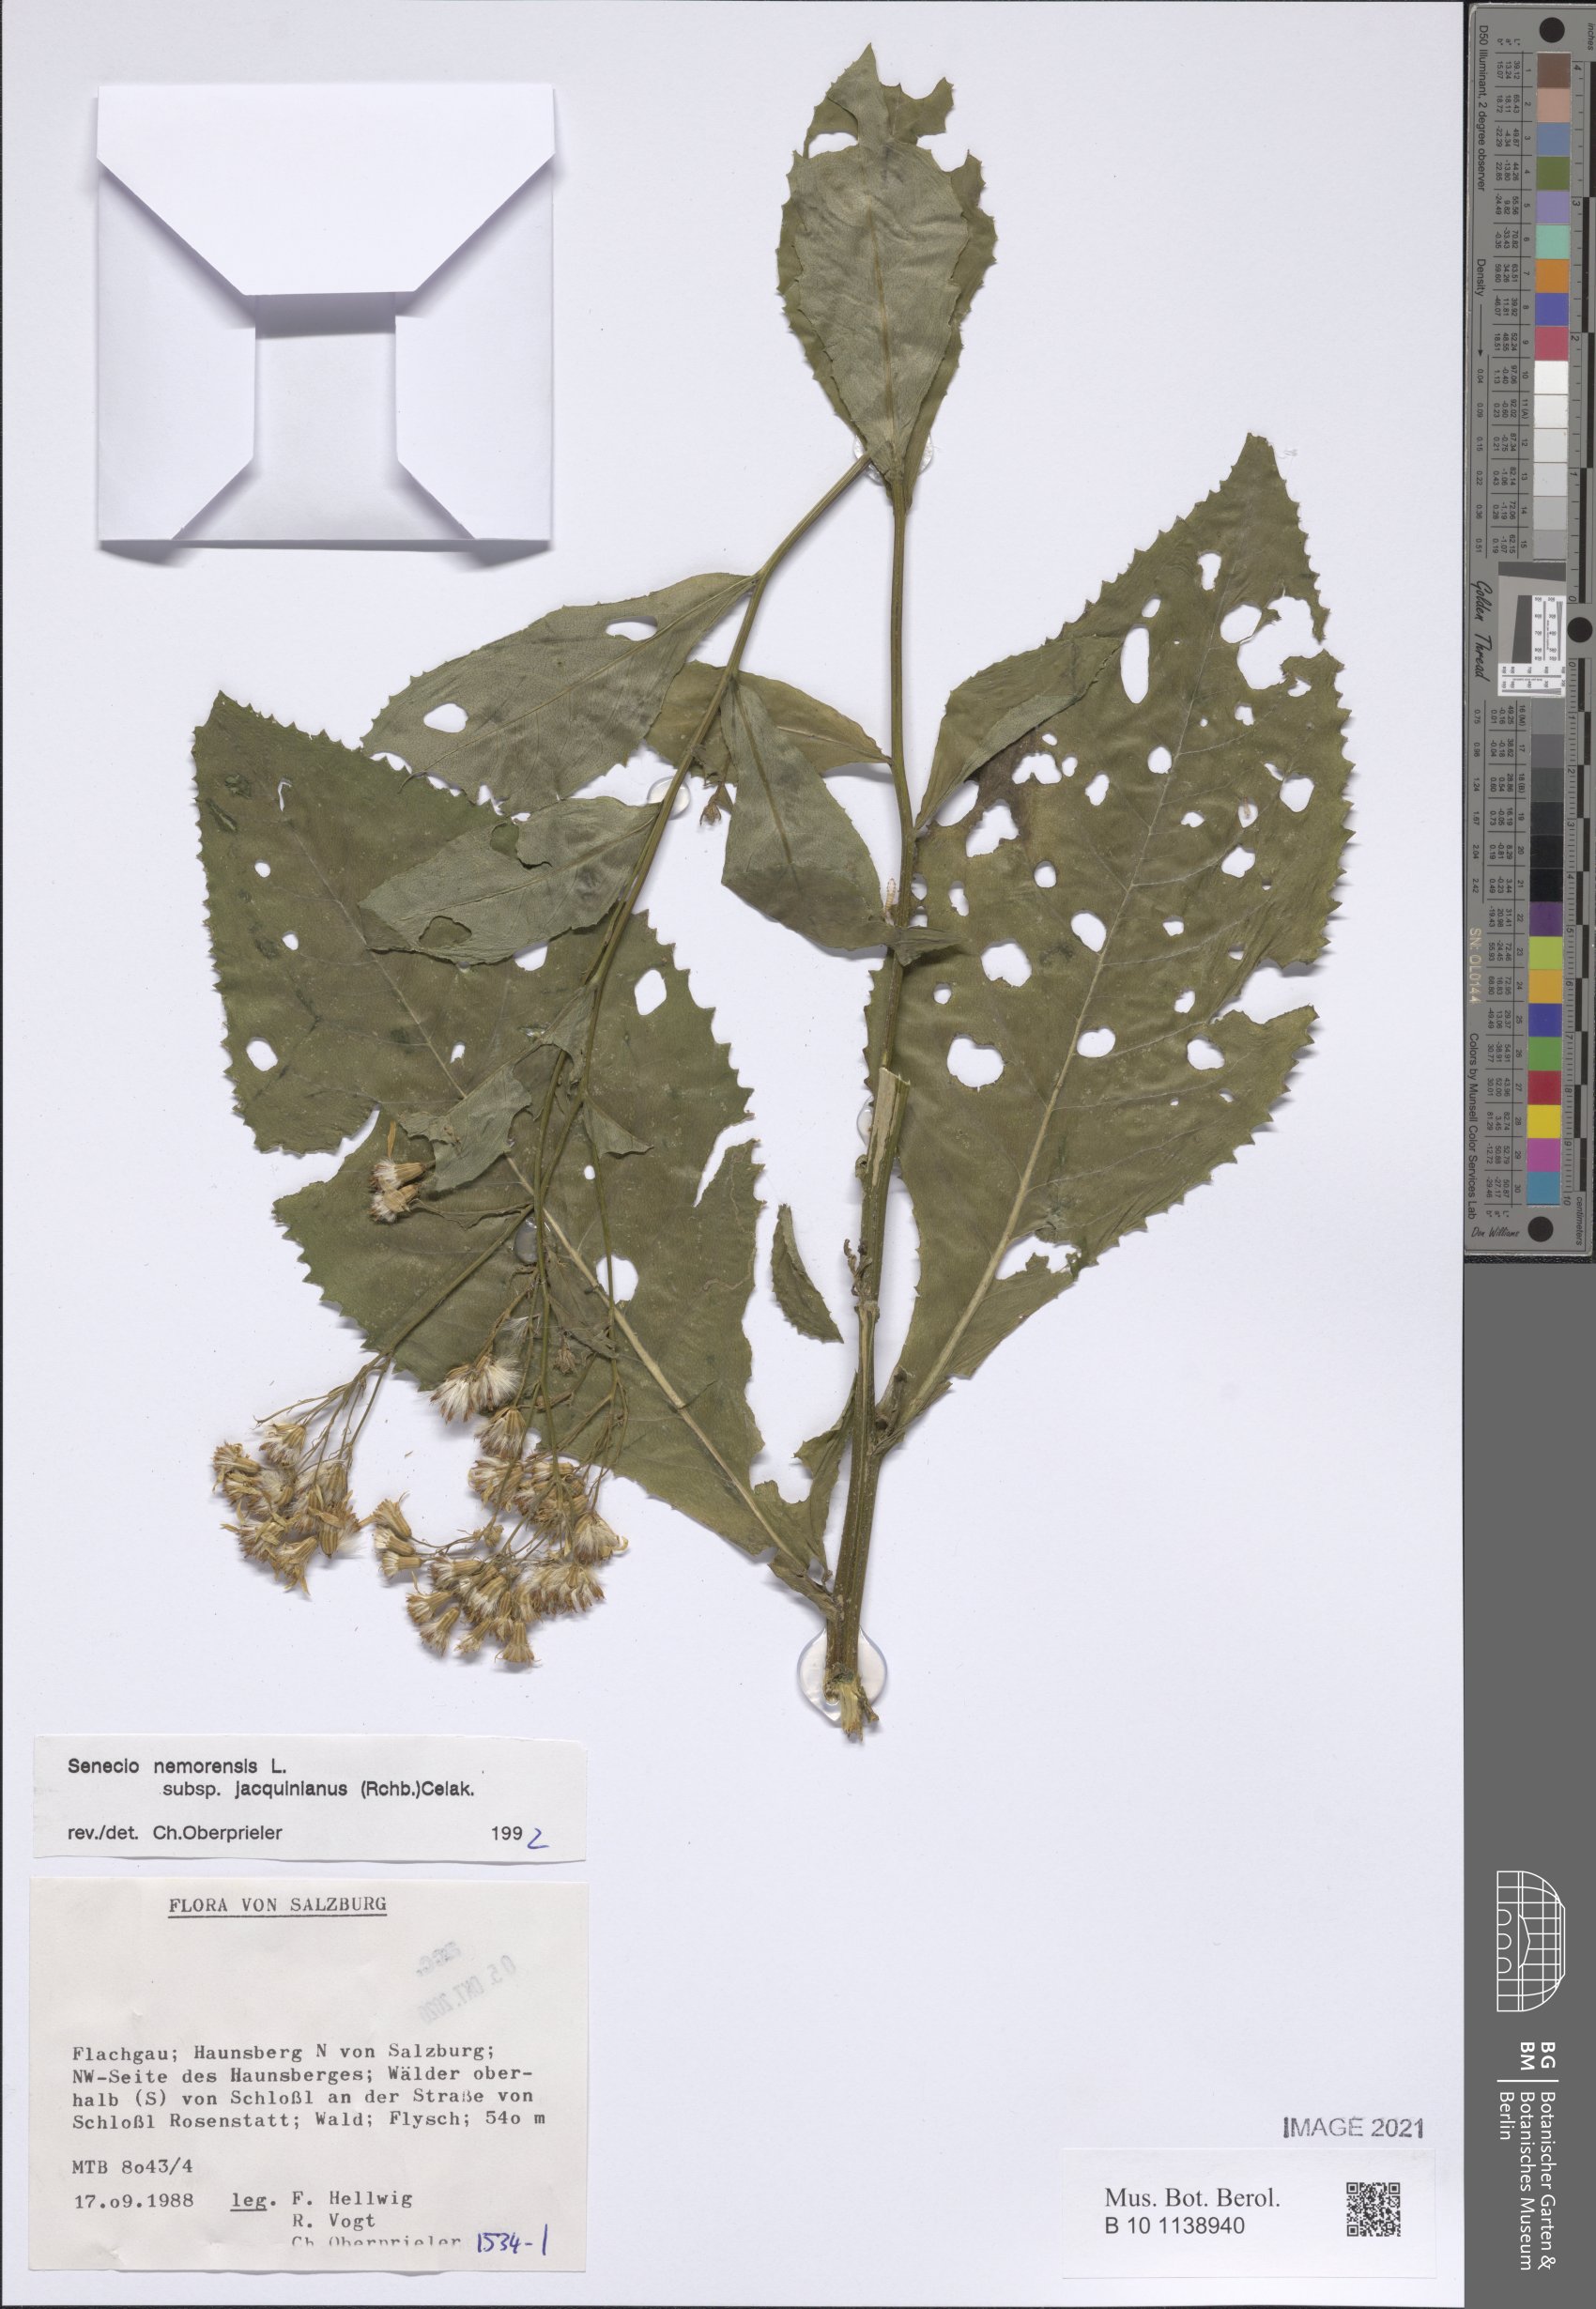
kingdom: Plantae
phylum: Tracheophyta
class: Magnoliopsida
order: Asterales
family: Asteraceae
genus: Senecio
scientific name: Senecio germanicus
